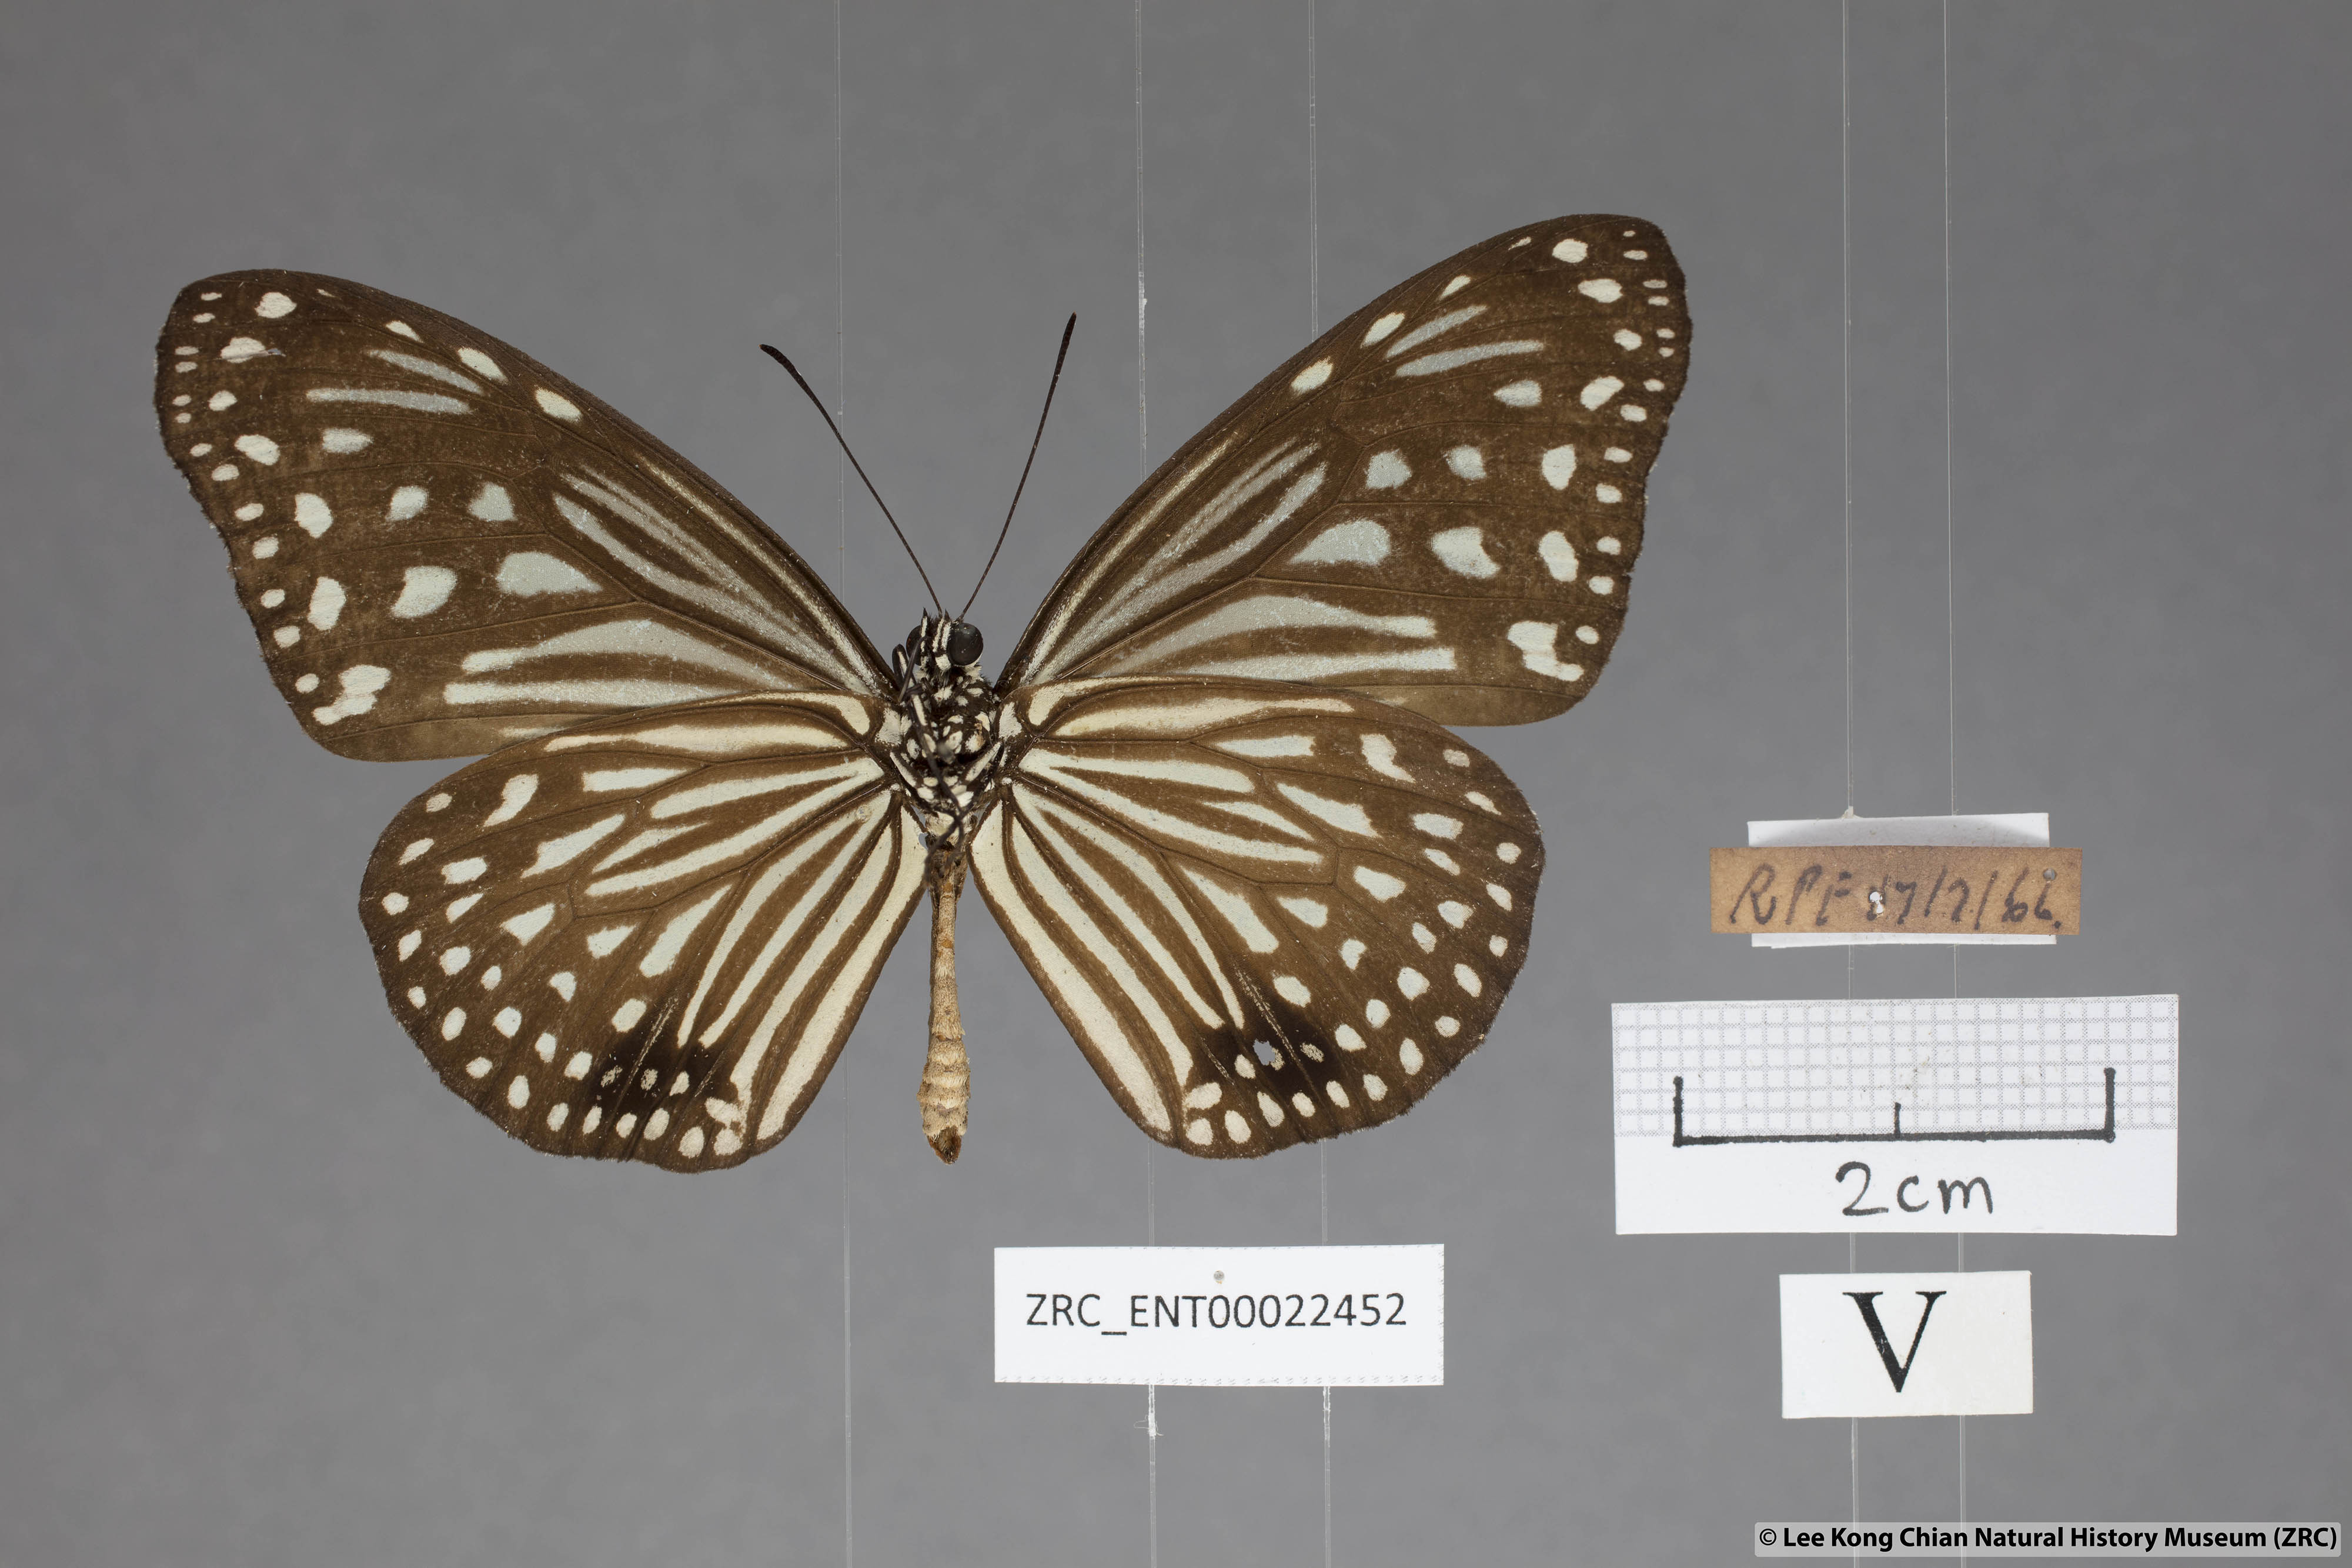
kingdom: Animalia
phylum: Arthropoda
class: Insecta
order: Lepidoptera
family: Nymphalidae
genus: Parantica
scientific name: Parantica agleoides
